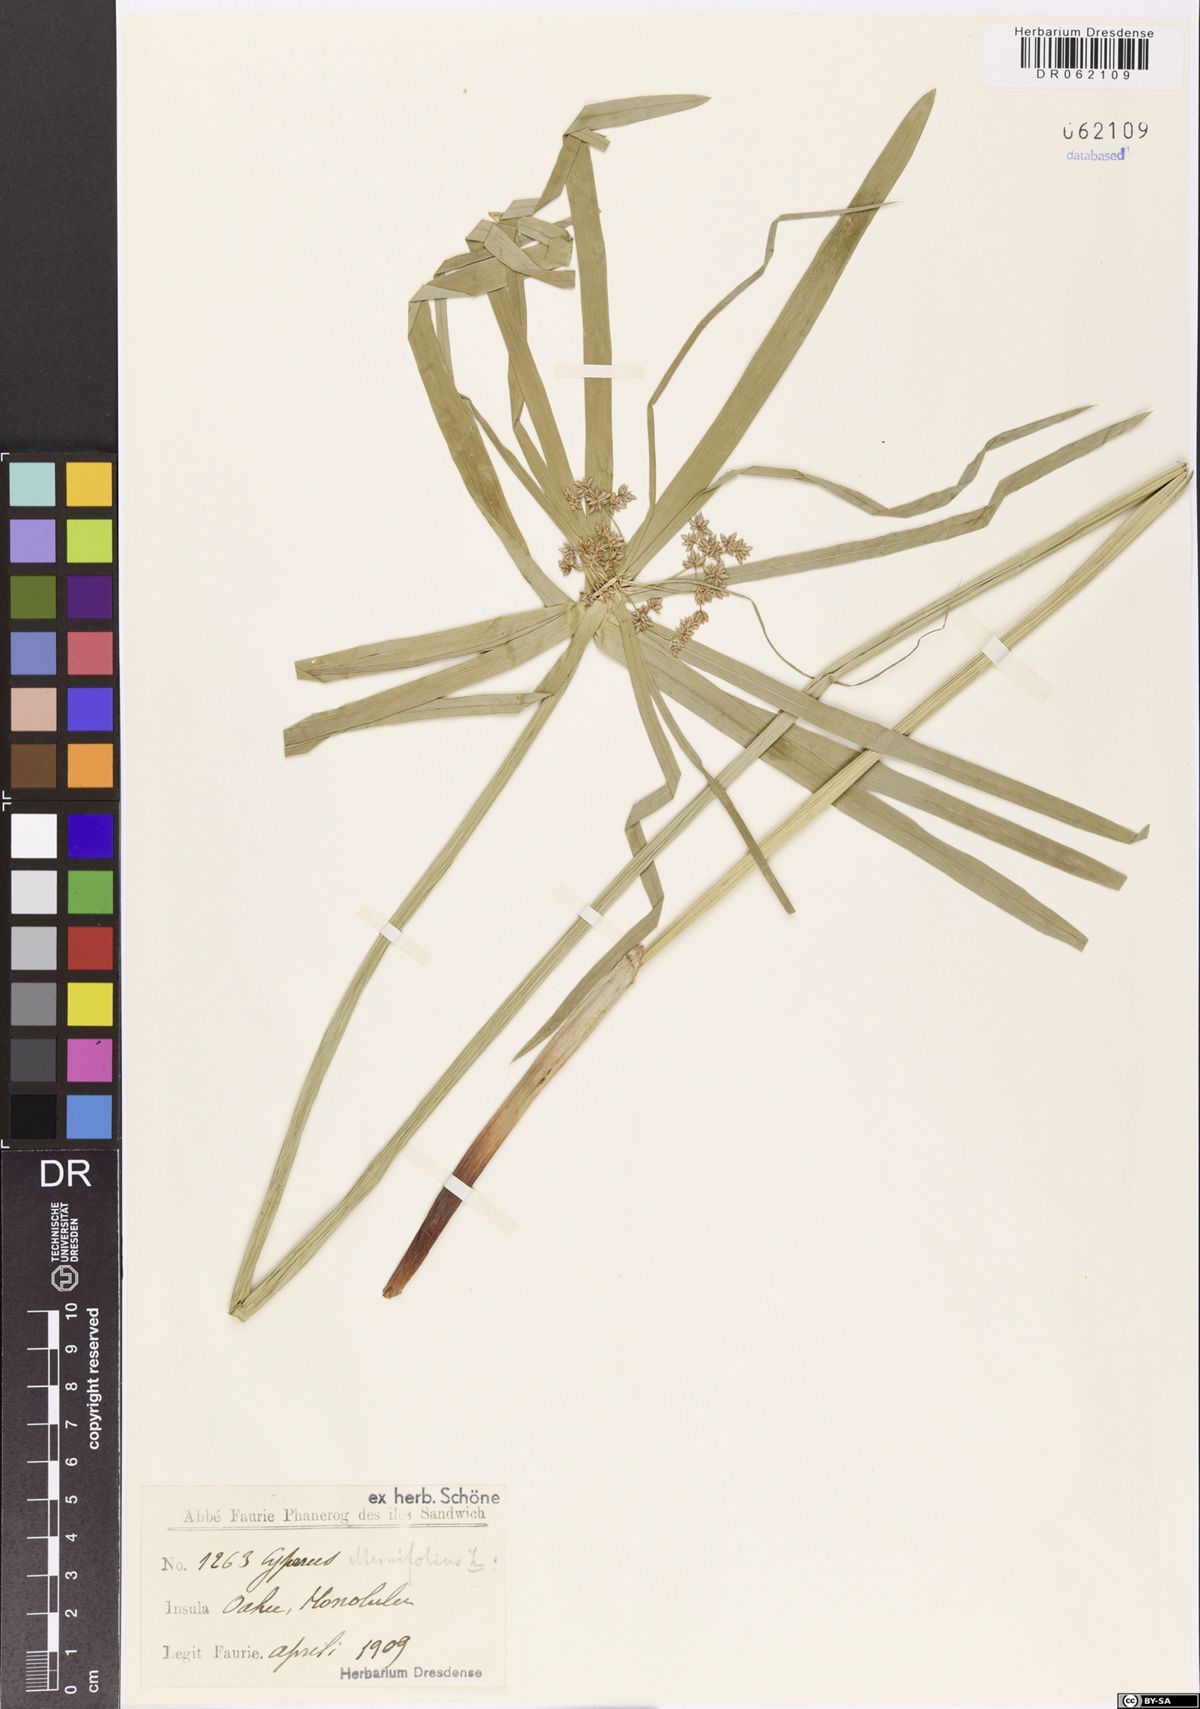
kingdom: Plantae
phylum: Tracheophyta
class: Liliopsida
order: Poales
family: Cyperaceae
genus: Cyperus
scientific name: Cyperus alternifolius
